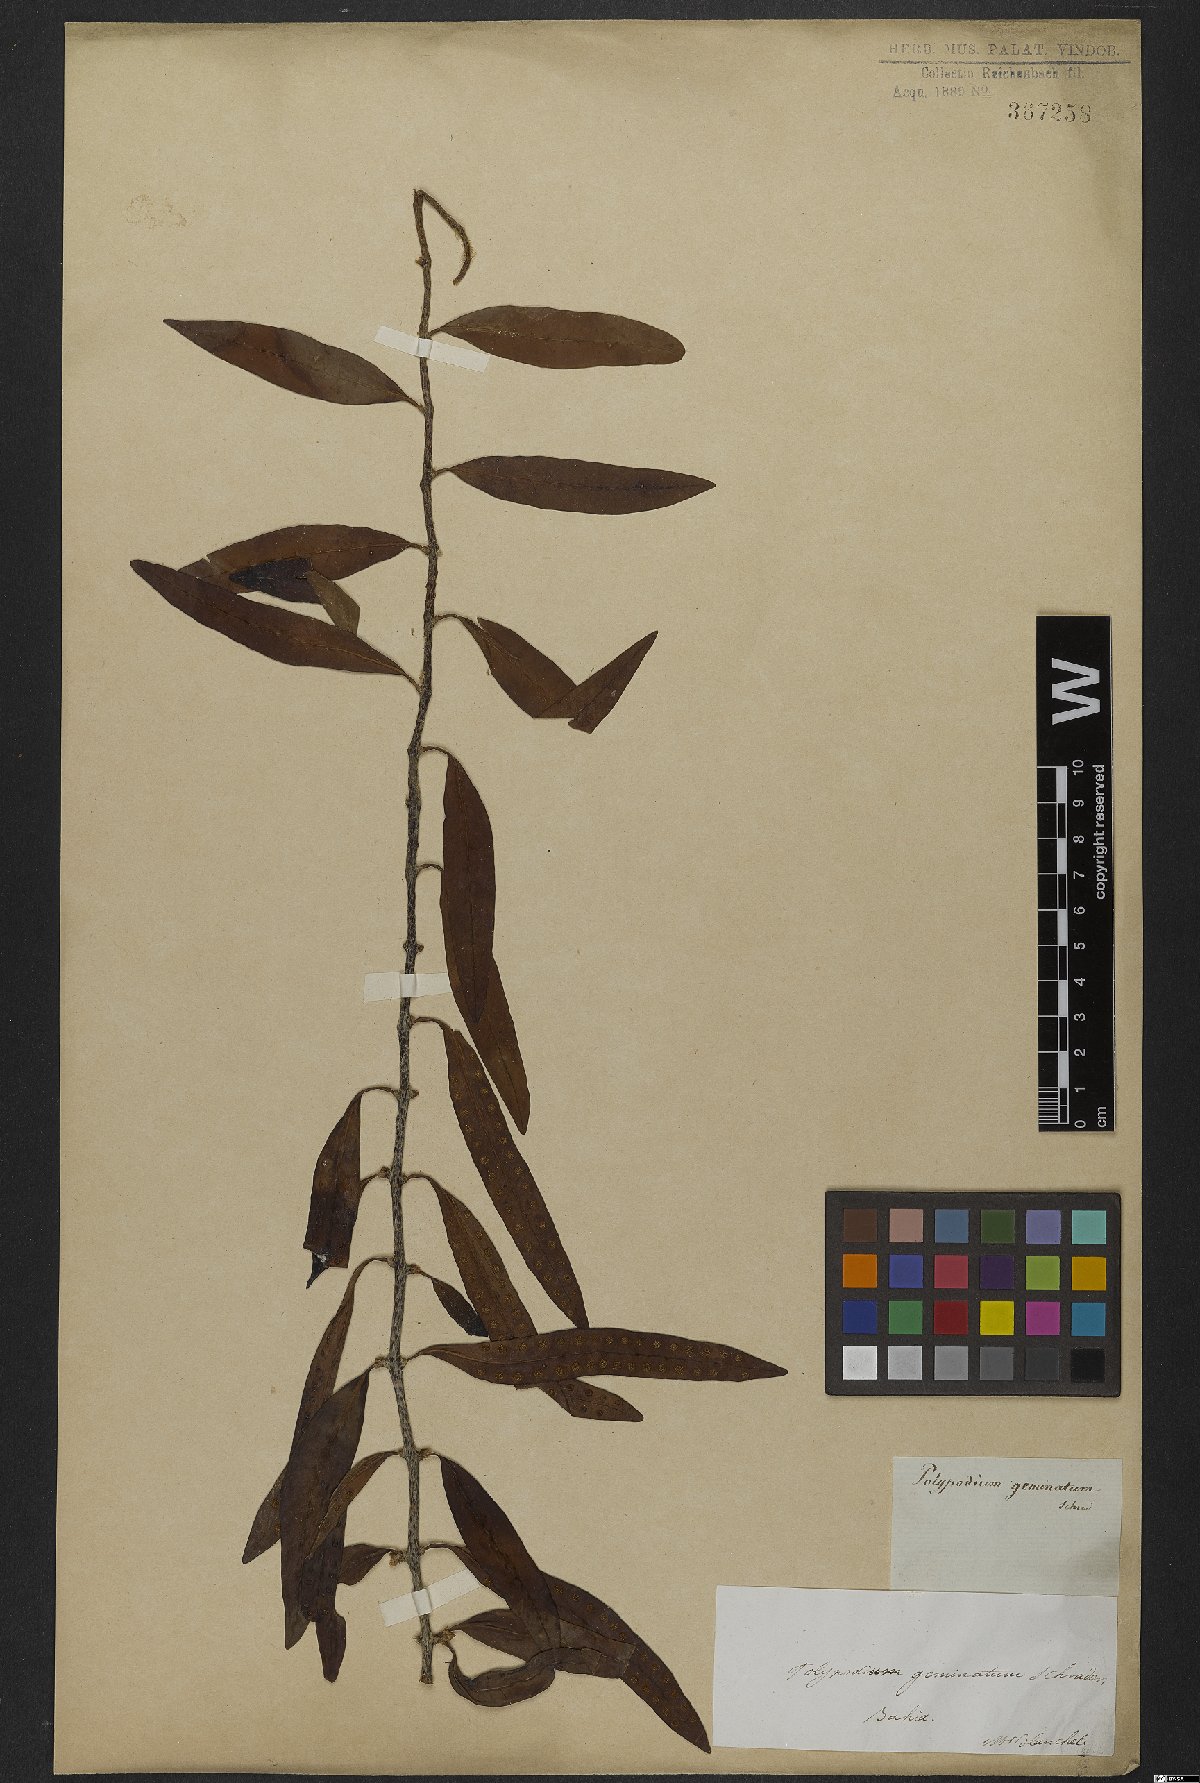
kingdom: Plantae
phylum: Tracheophyta
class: Polypodiopsida
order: Polypodiales
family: Polypodiaceae
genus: Microgramma
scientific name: Microgramma geminata
